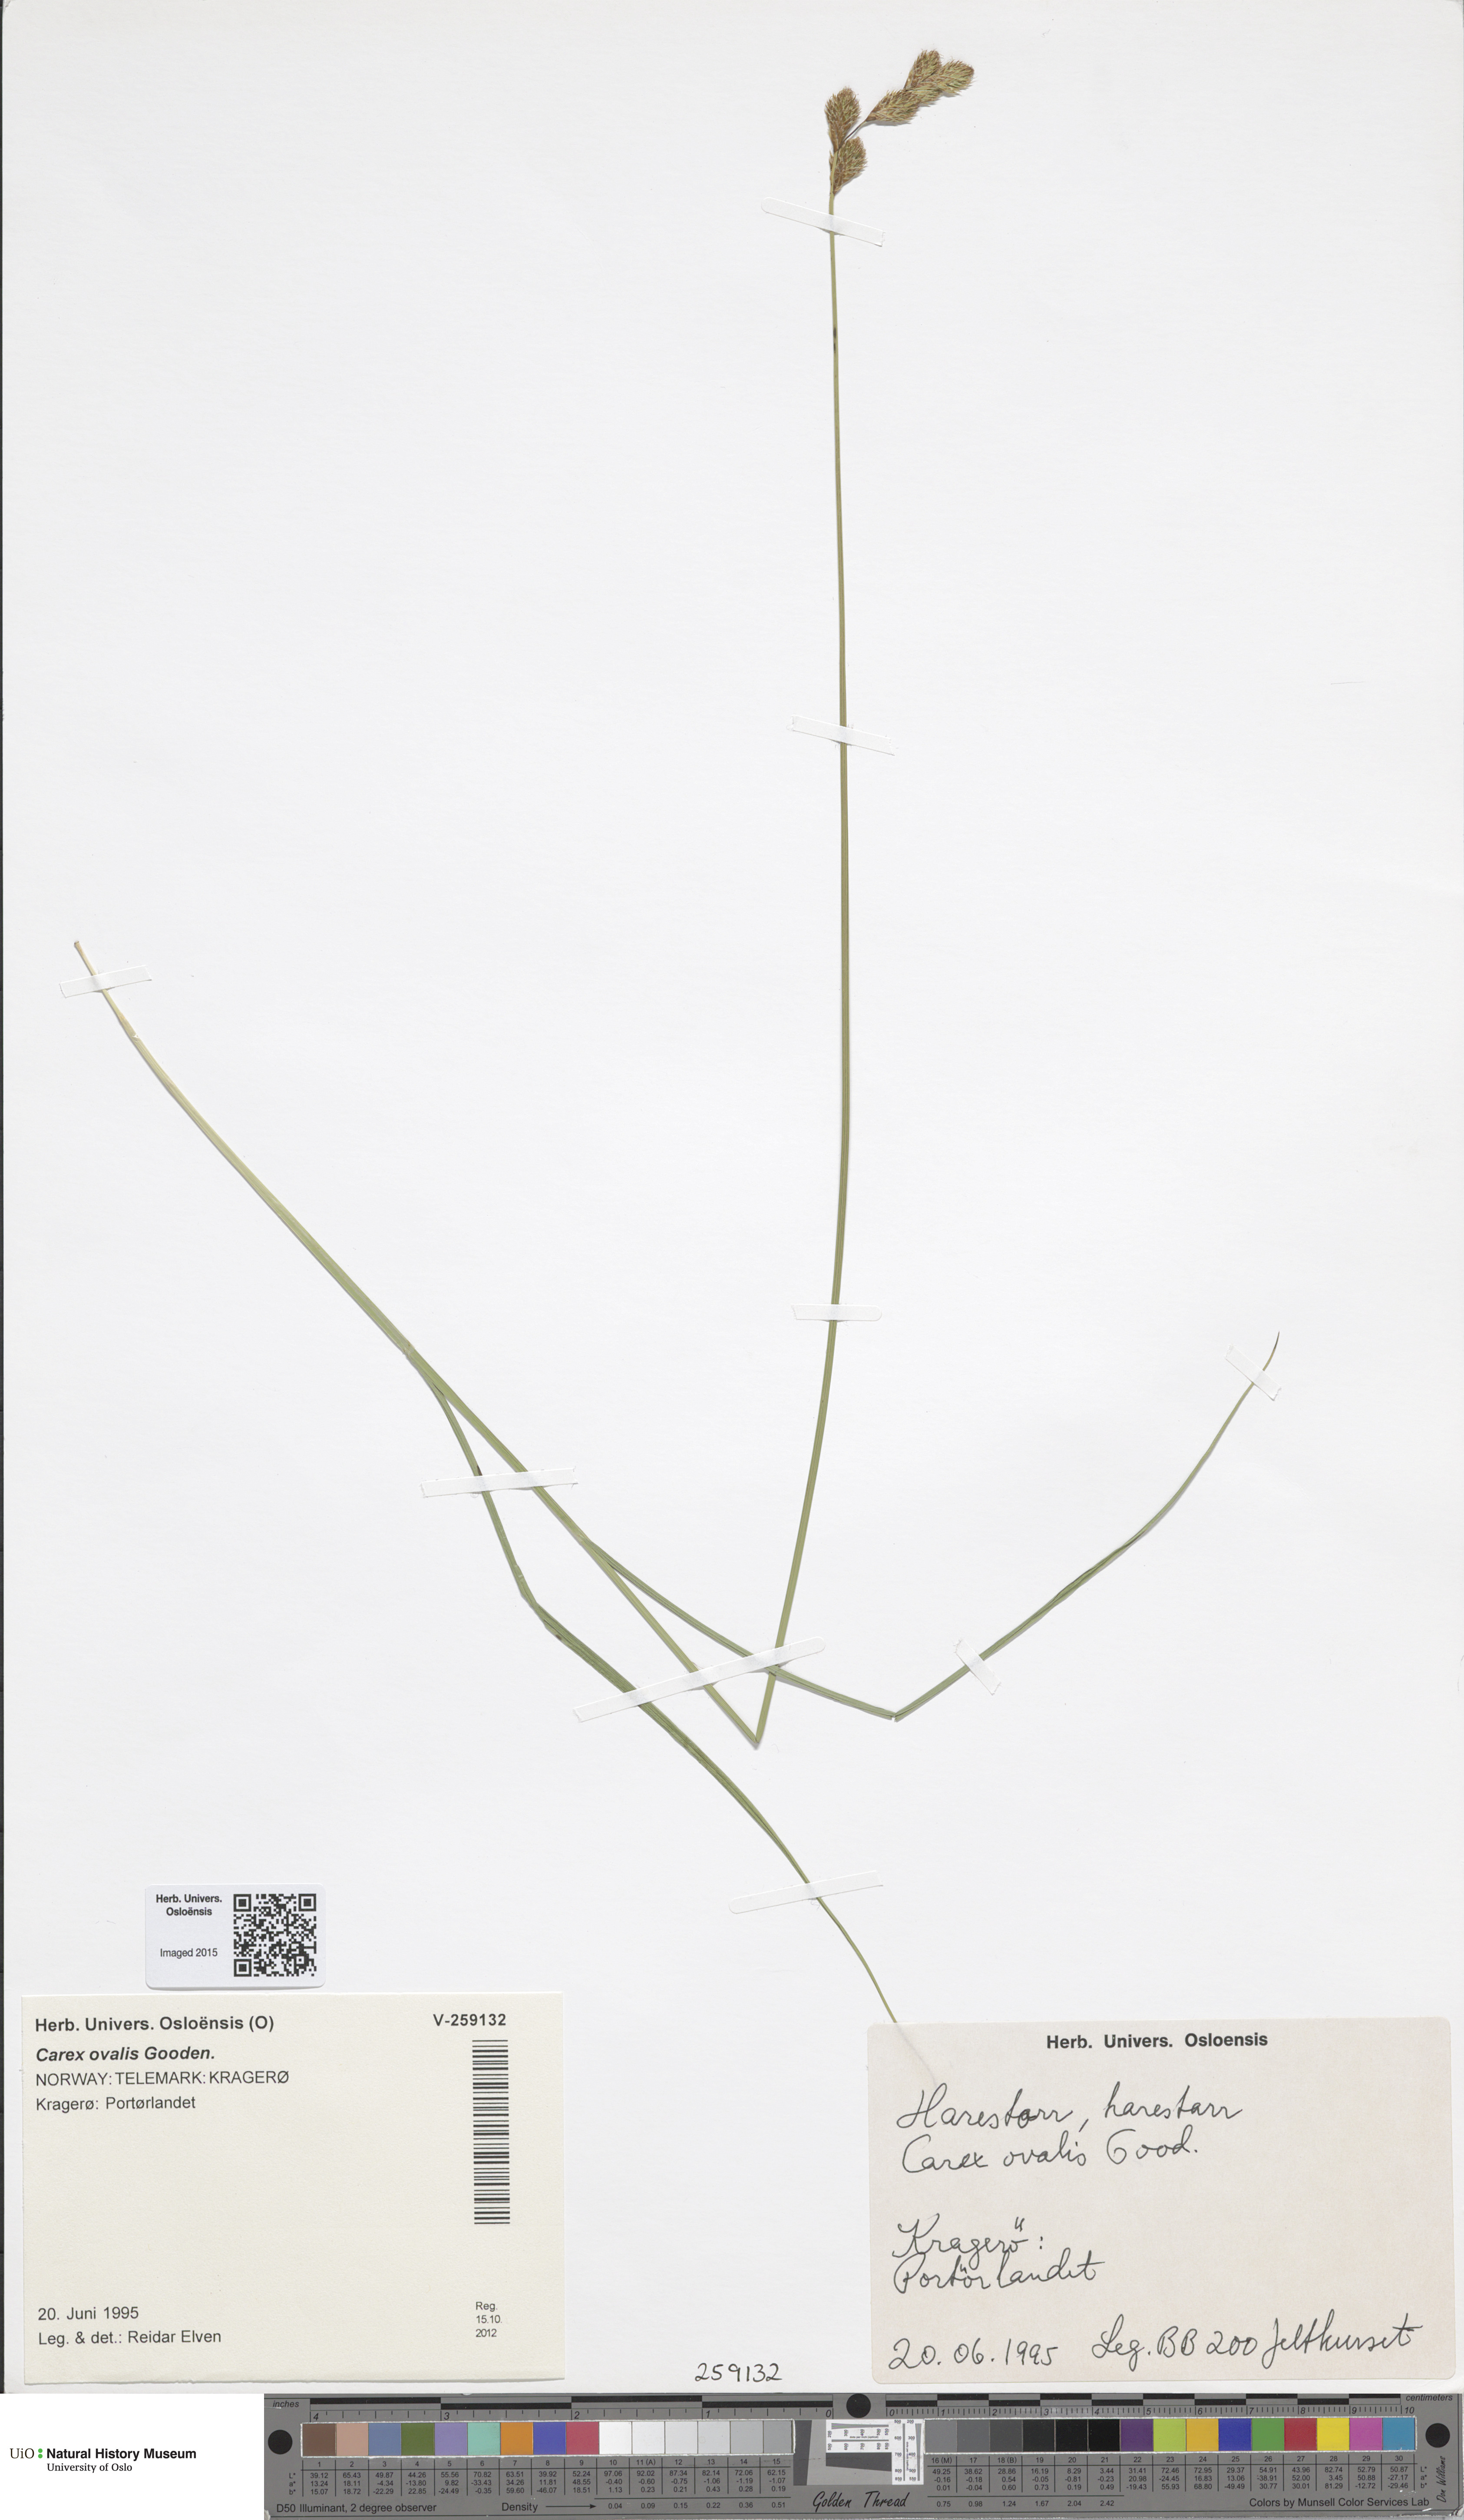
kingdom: Plantae
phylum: Tracheophyta
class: Liliopsida
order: Poales
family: Cyperaceae
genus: Carex
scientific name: Carex leporina
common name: Oval sedge
